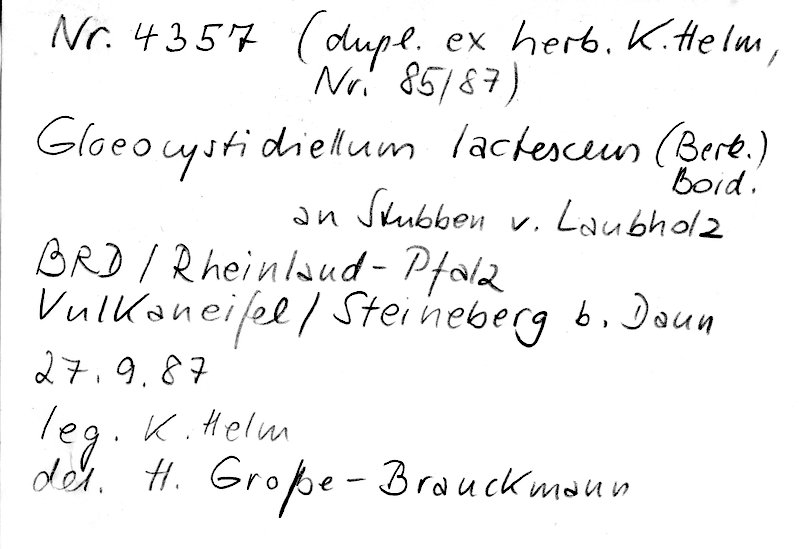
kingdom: Fungi
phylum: Basidiomycota
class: Agaricomycetes
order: Russulales
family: Peniophoraceae
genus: Gloiothele
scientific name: Gloiothele lactescens
